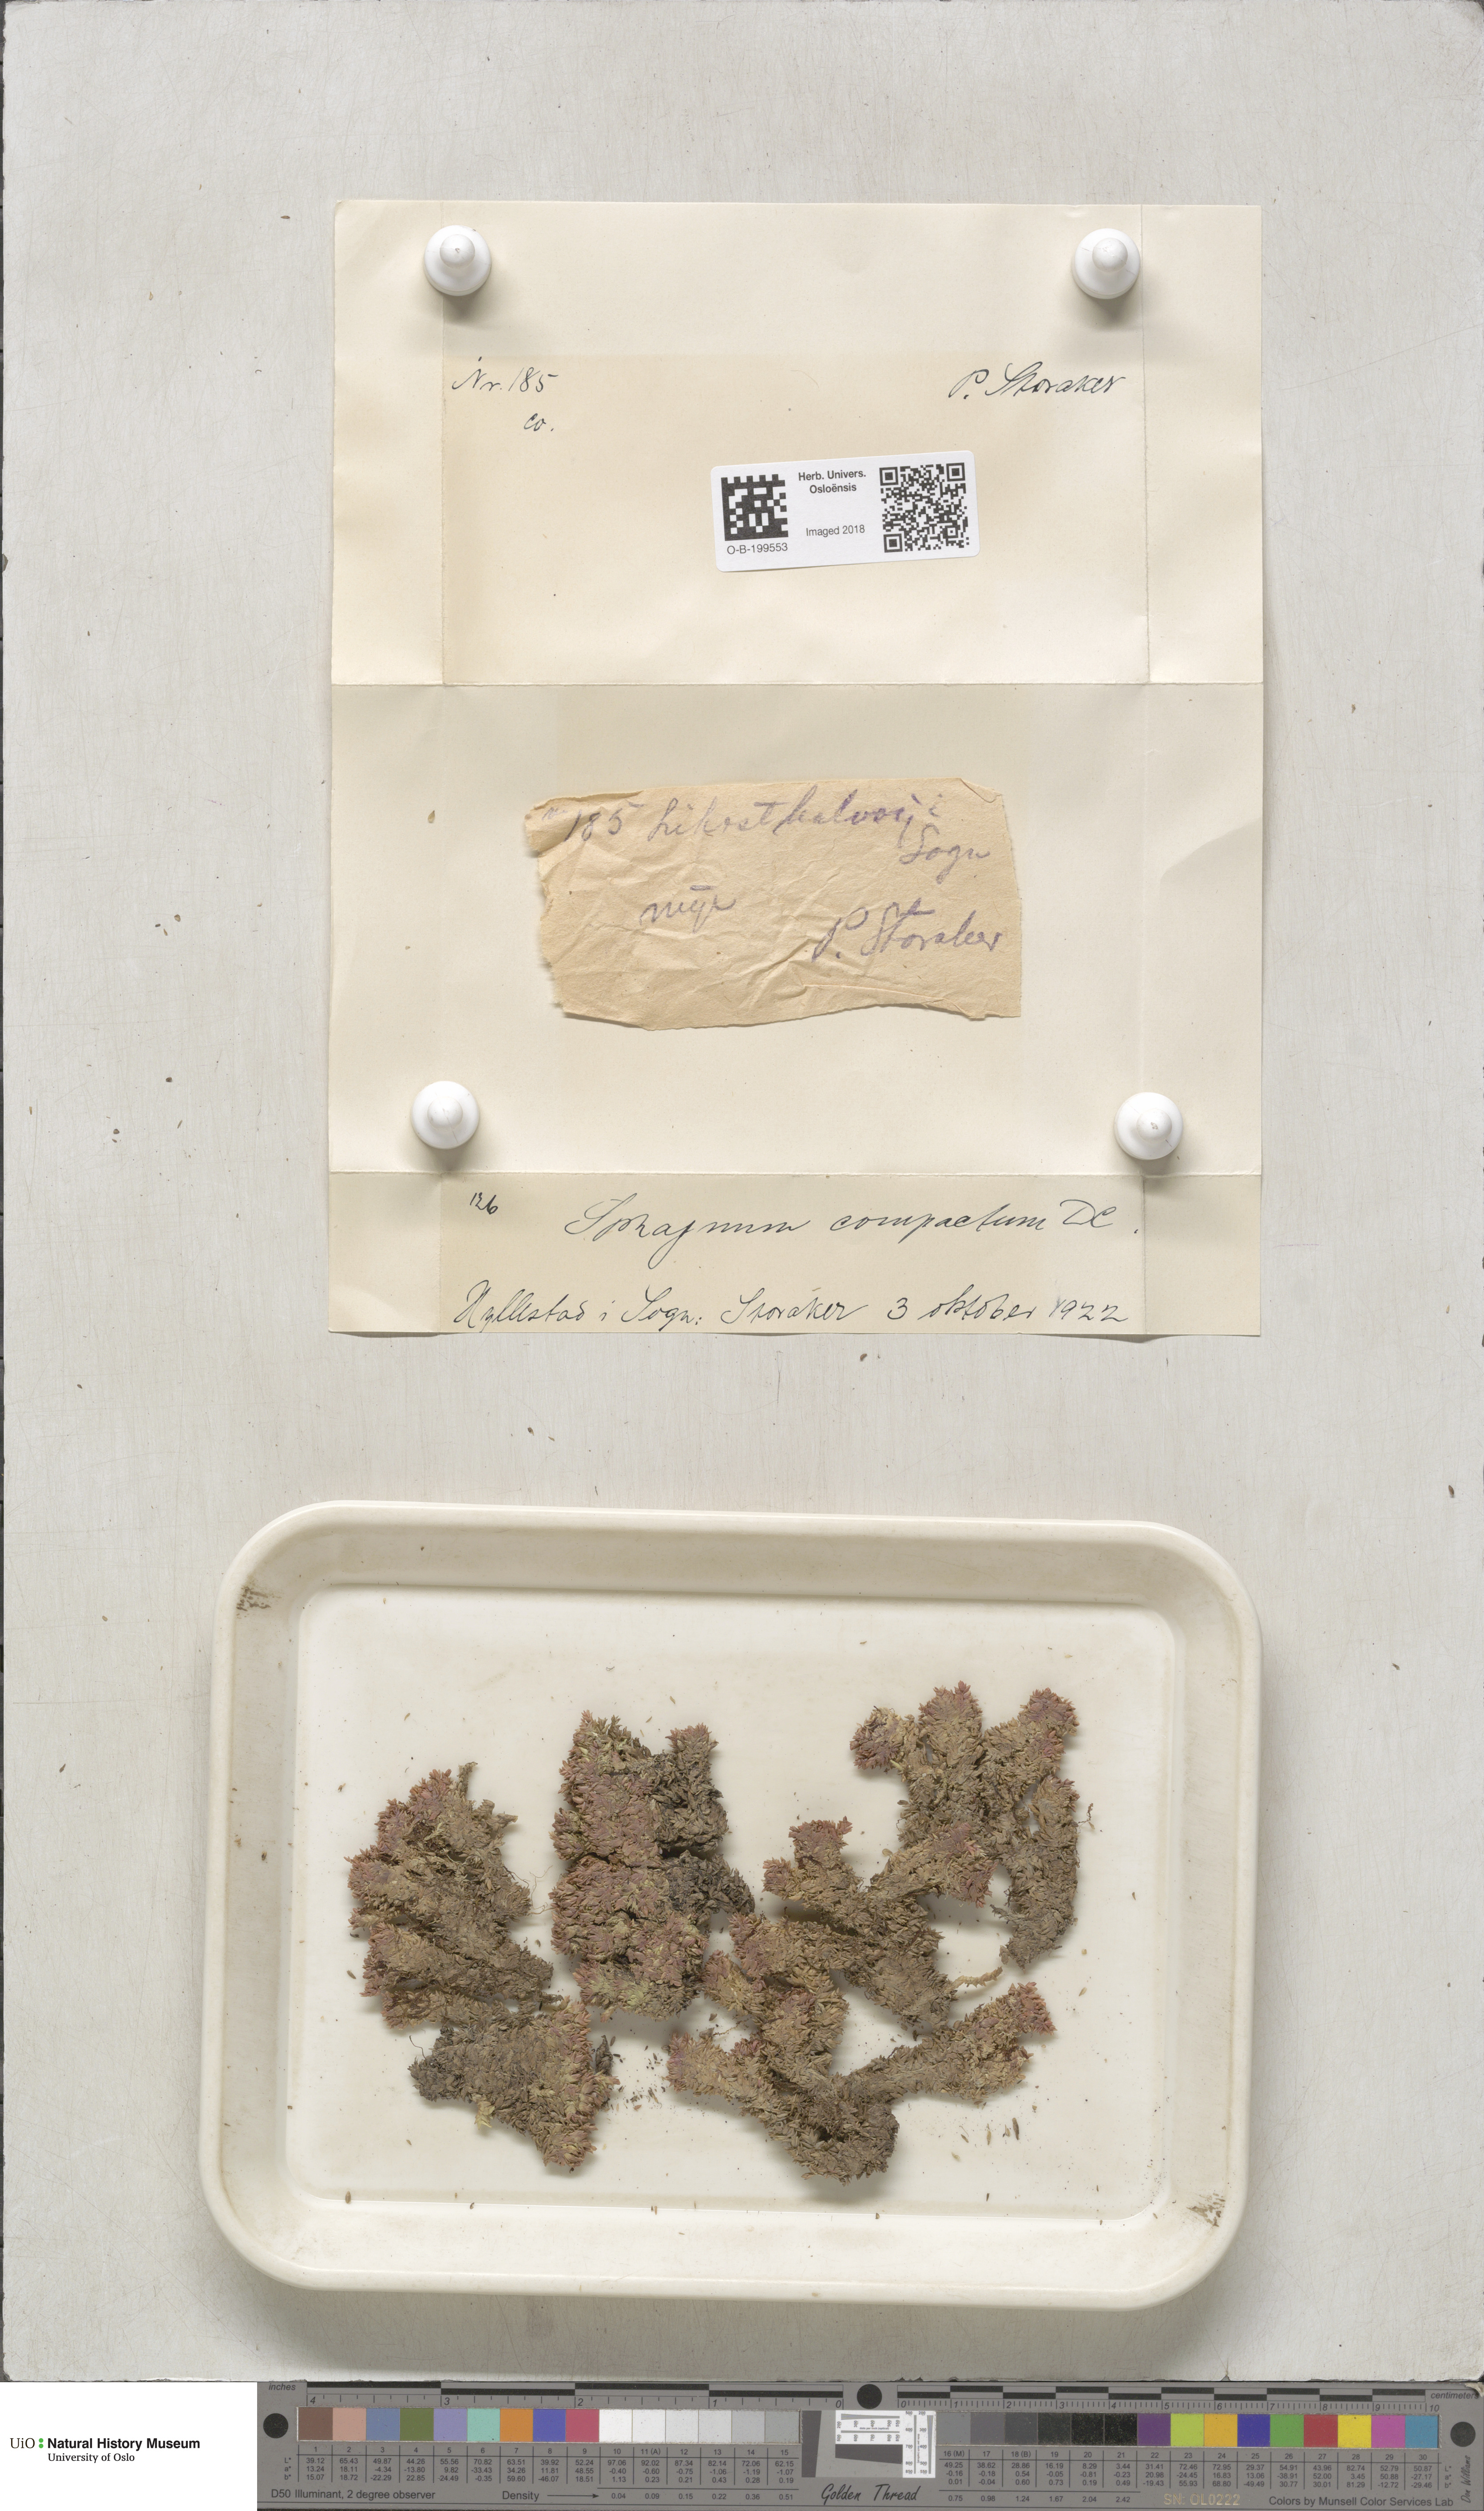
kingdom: Plantae
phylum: Bryophyta
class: Sphagnopsida
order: Sphagnales
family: Sphagnaceae
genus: Sphagnum
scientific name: Sphagnum compactum
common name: Compact peat moss
